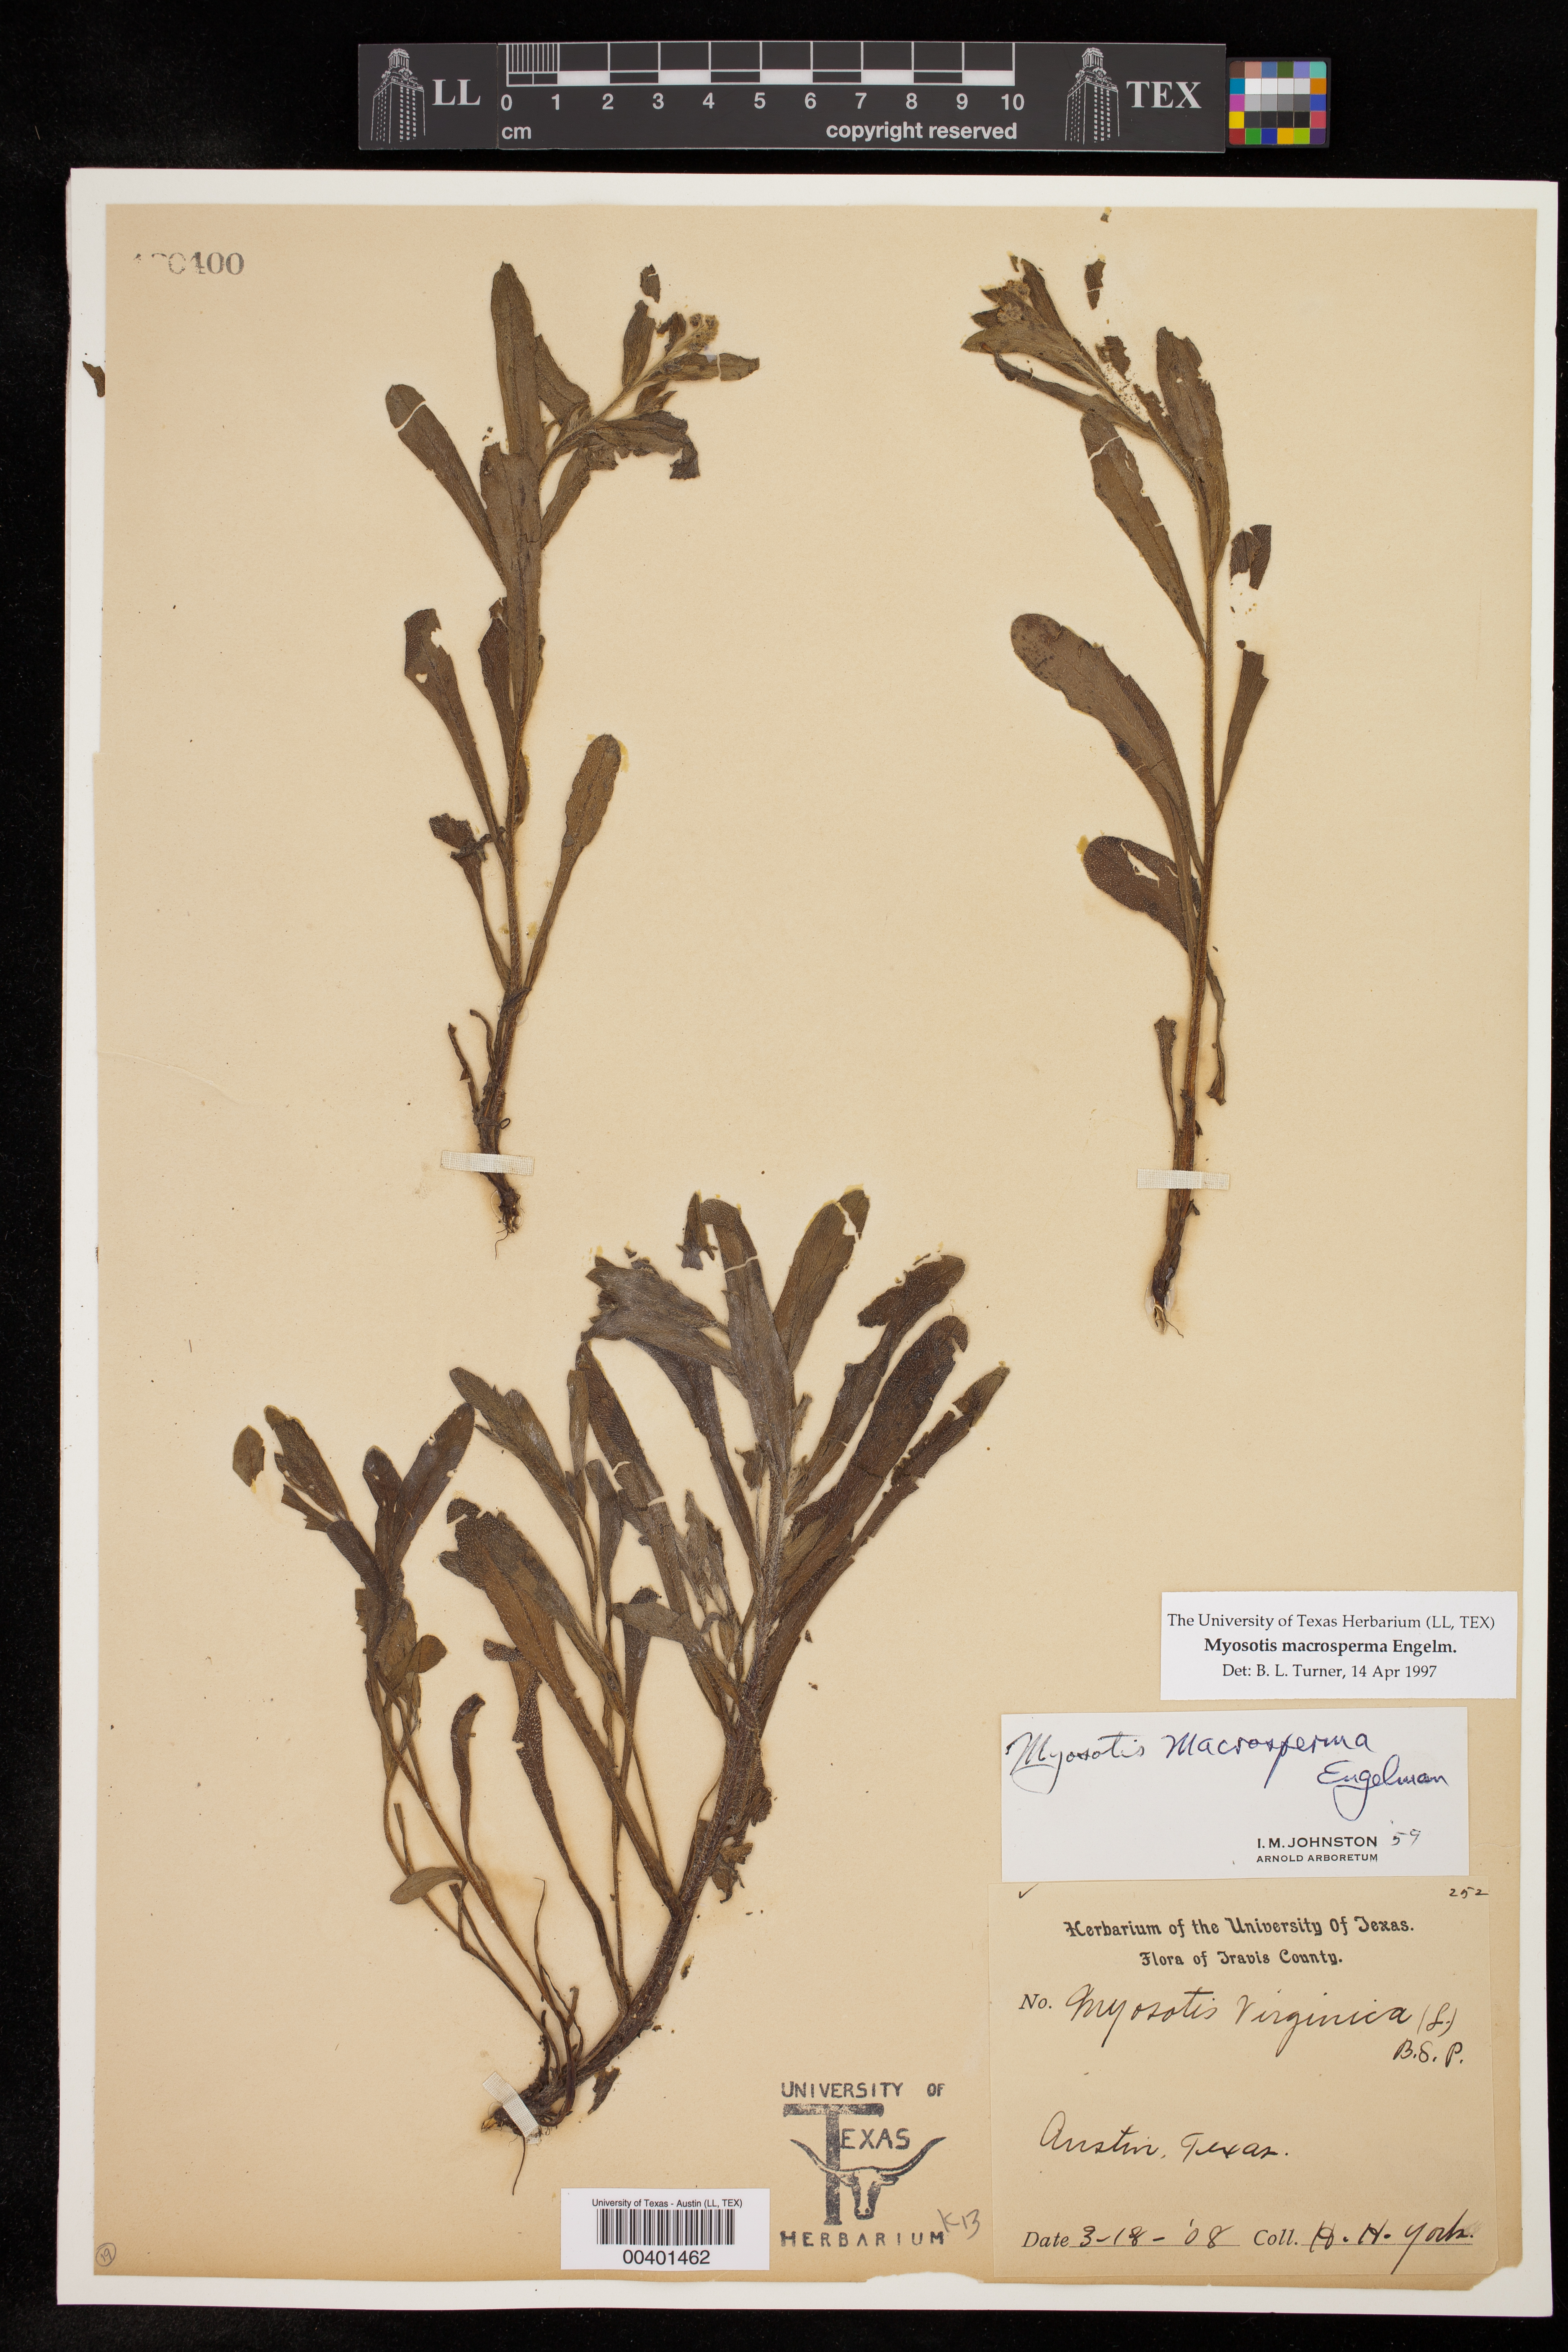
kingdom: Plantae
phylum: Tracheophyta
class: Magnoliopsida
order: Boraginales
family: Boraginaceae
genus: Myosotis
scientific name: Myosotis macrosperma
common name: Large-seed forget-me-not
